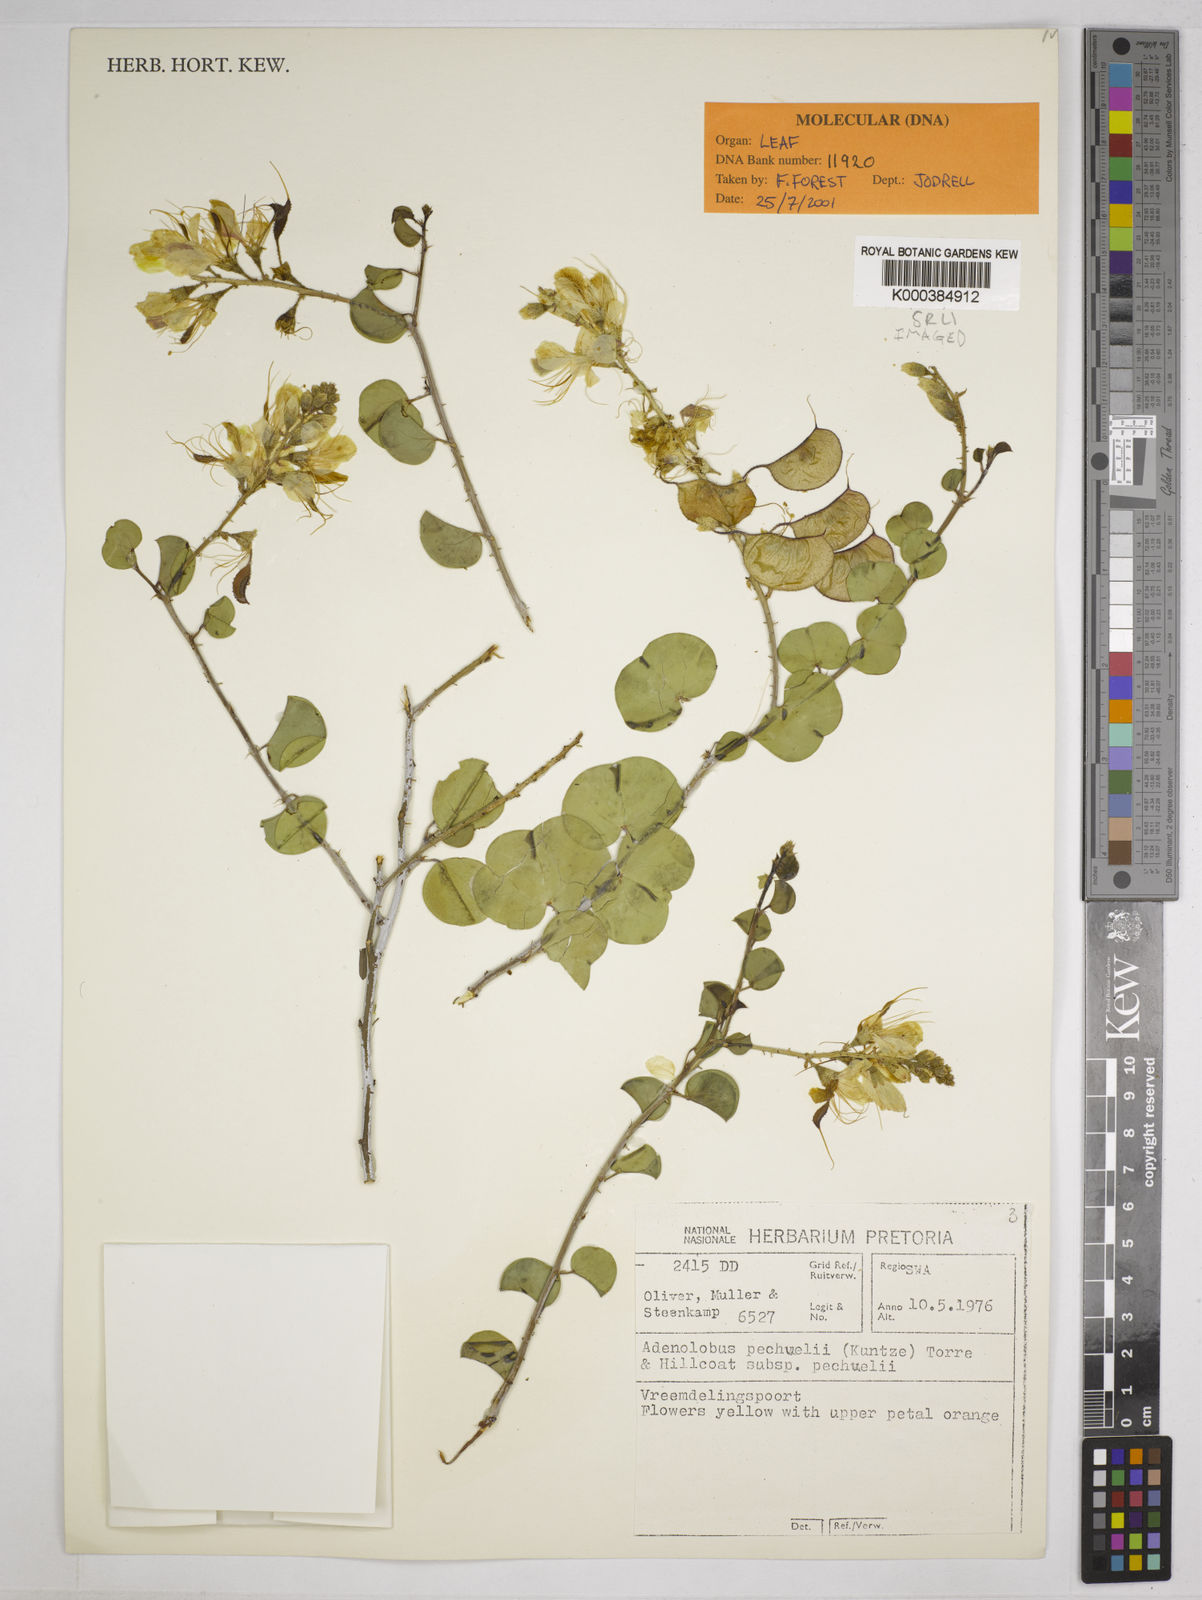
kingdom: Plantae
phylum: Tracheophyta
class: Magnoliopsida
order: Fabales
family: Fabaceae
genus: Adenolobus
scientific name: Adenolobus pechuelii
